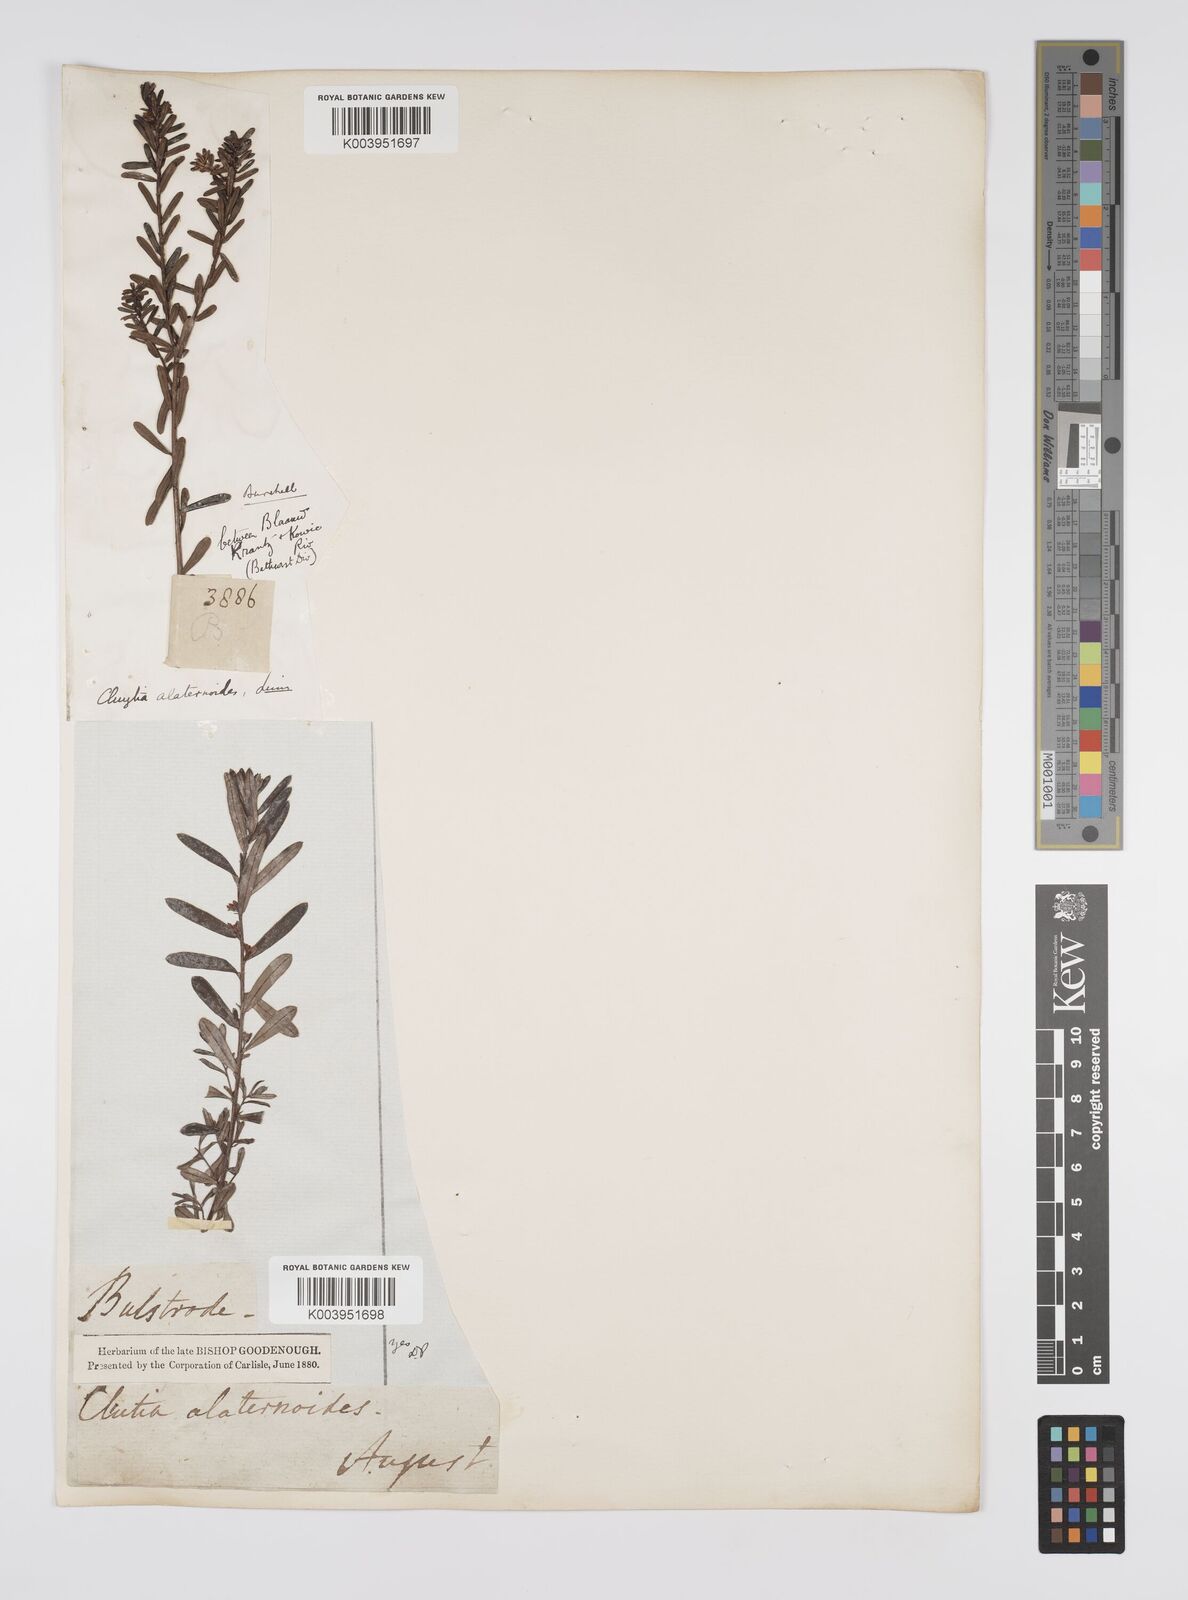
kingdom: Plantae
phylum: Tracheophyta
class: Magnoliopsida
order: Malpighiales
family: Peraceae
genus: Clutia
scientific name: Clutia alaternoides
